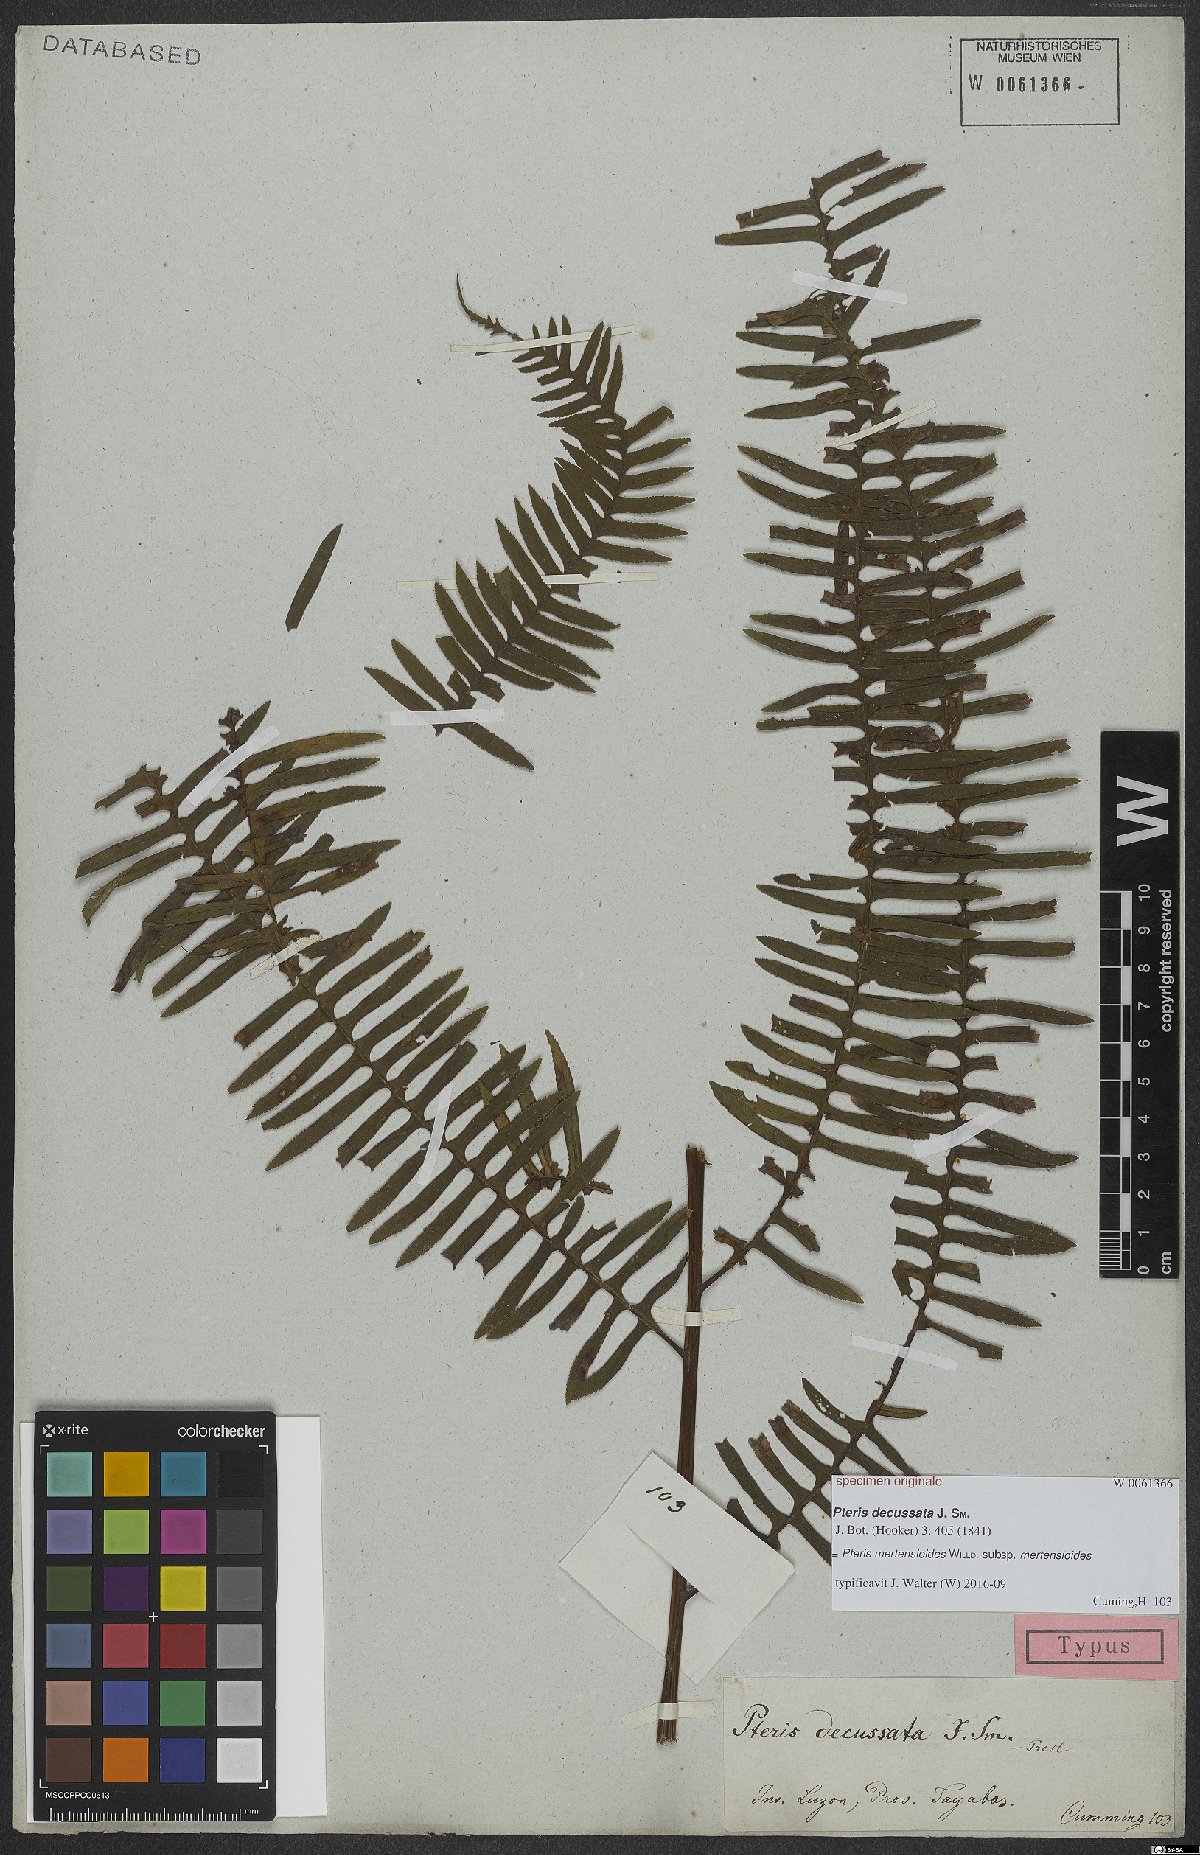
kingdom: Plantae
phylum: Tracheophyta
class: Polypodiopsida
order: Polypodiales
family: Pteridaceae
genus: Pteris
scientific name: Pteris mertensioides
